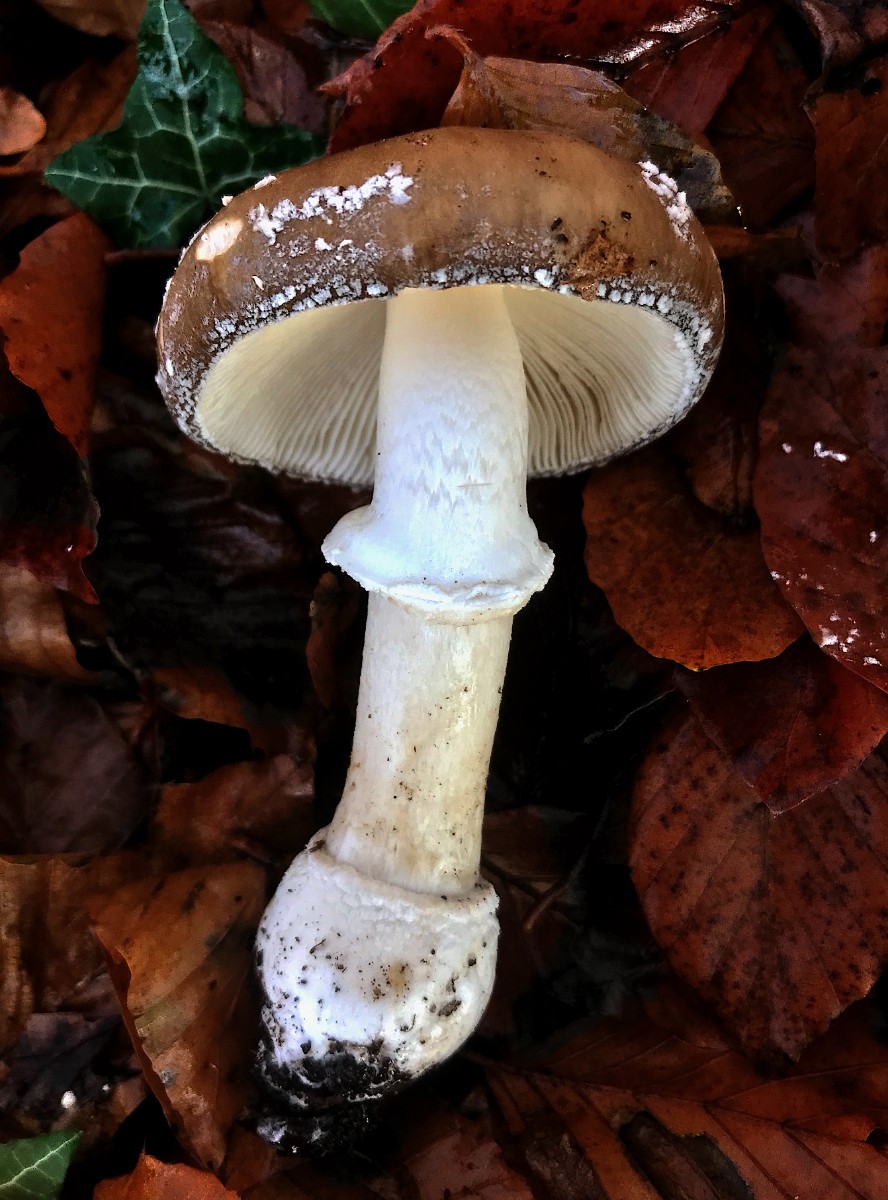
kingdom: Fungi
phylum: Basidiomycota
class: Agaricomycetes
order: Agaricales
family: Amanitaceae
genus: Amanita
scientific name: Amanita pantherina
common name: panter-fluesvamp
